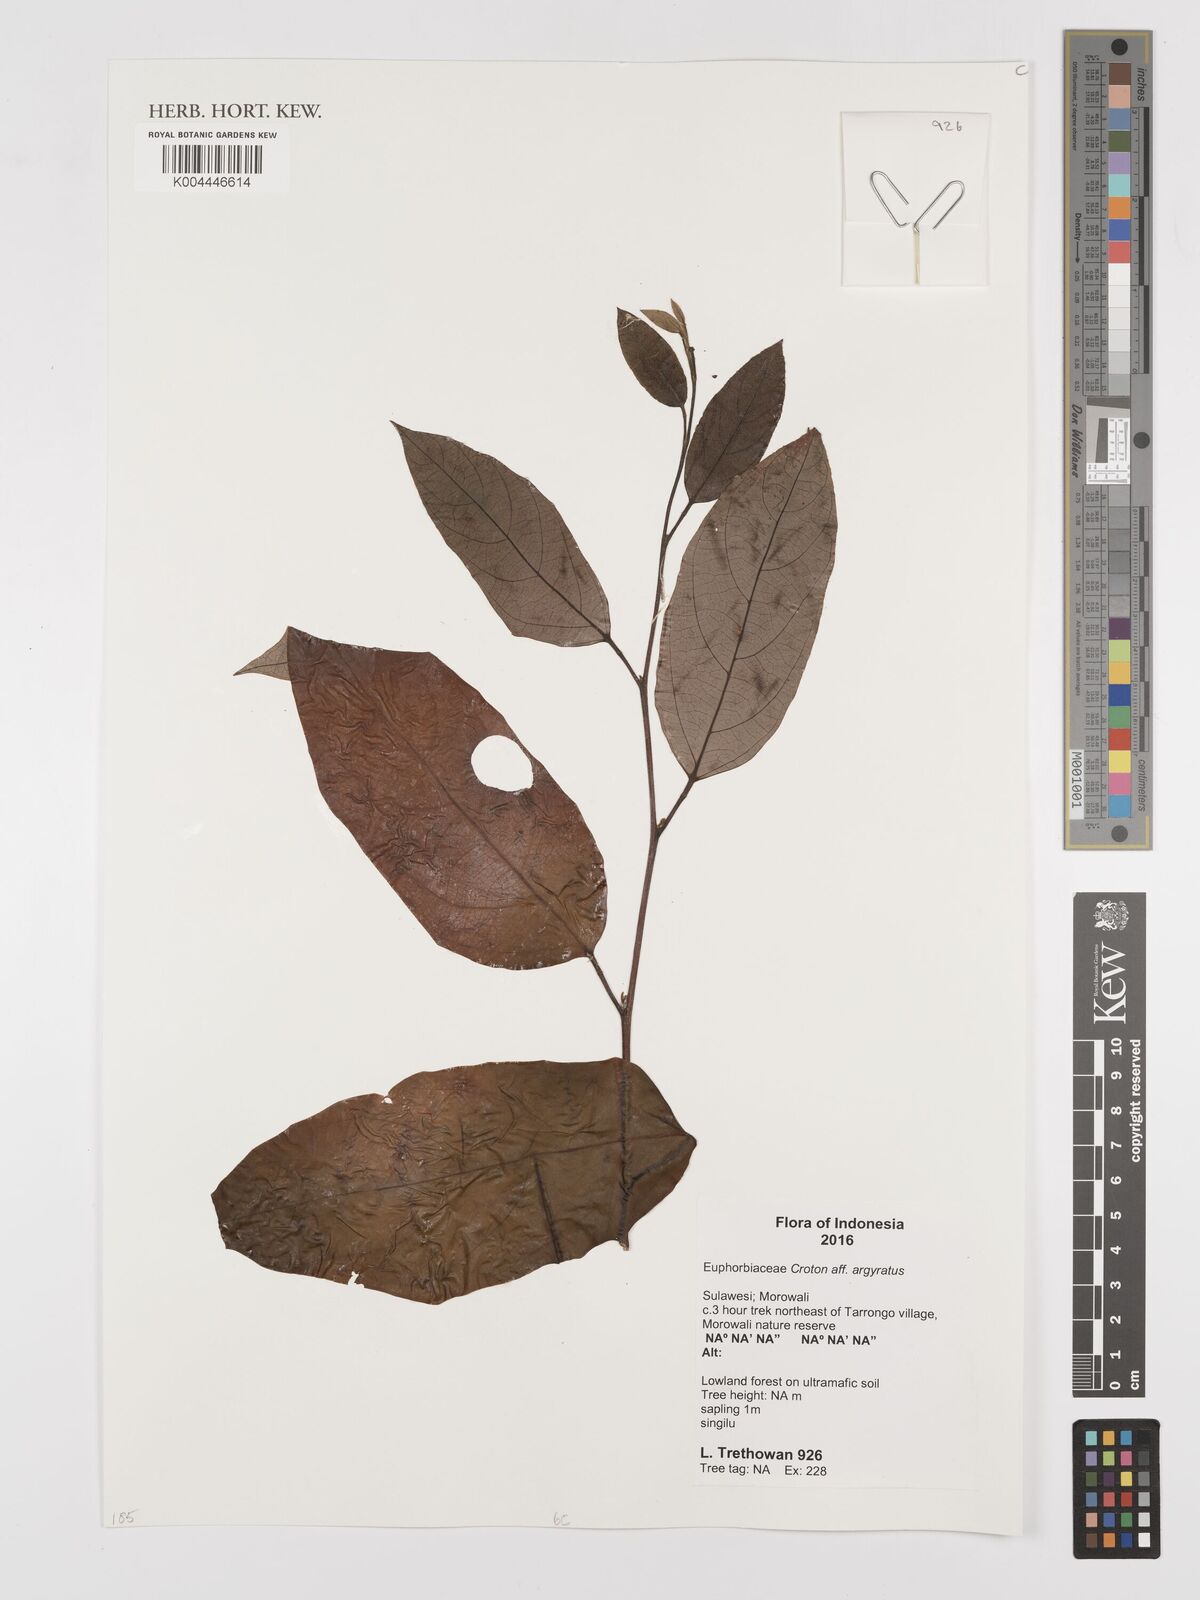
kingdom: Plantae
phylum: Tracheophyta
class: Magnoliopsida
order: Malpighiales
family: Euphorbiaceae
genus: Croton
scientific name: Croton argyratus
